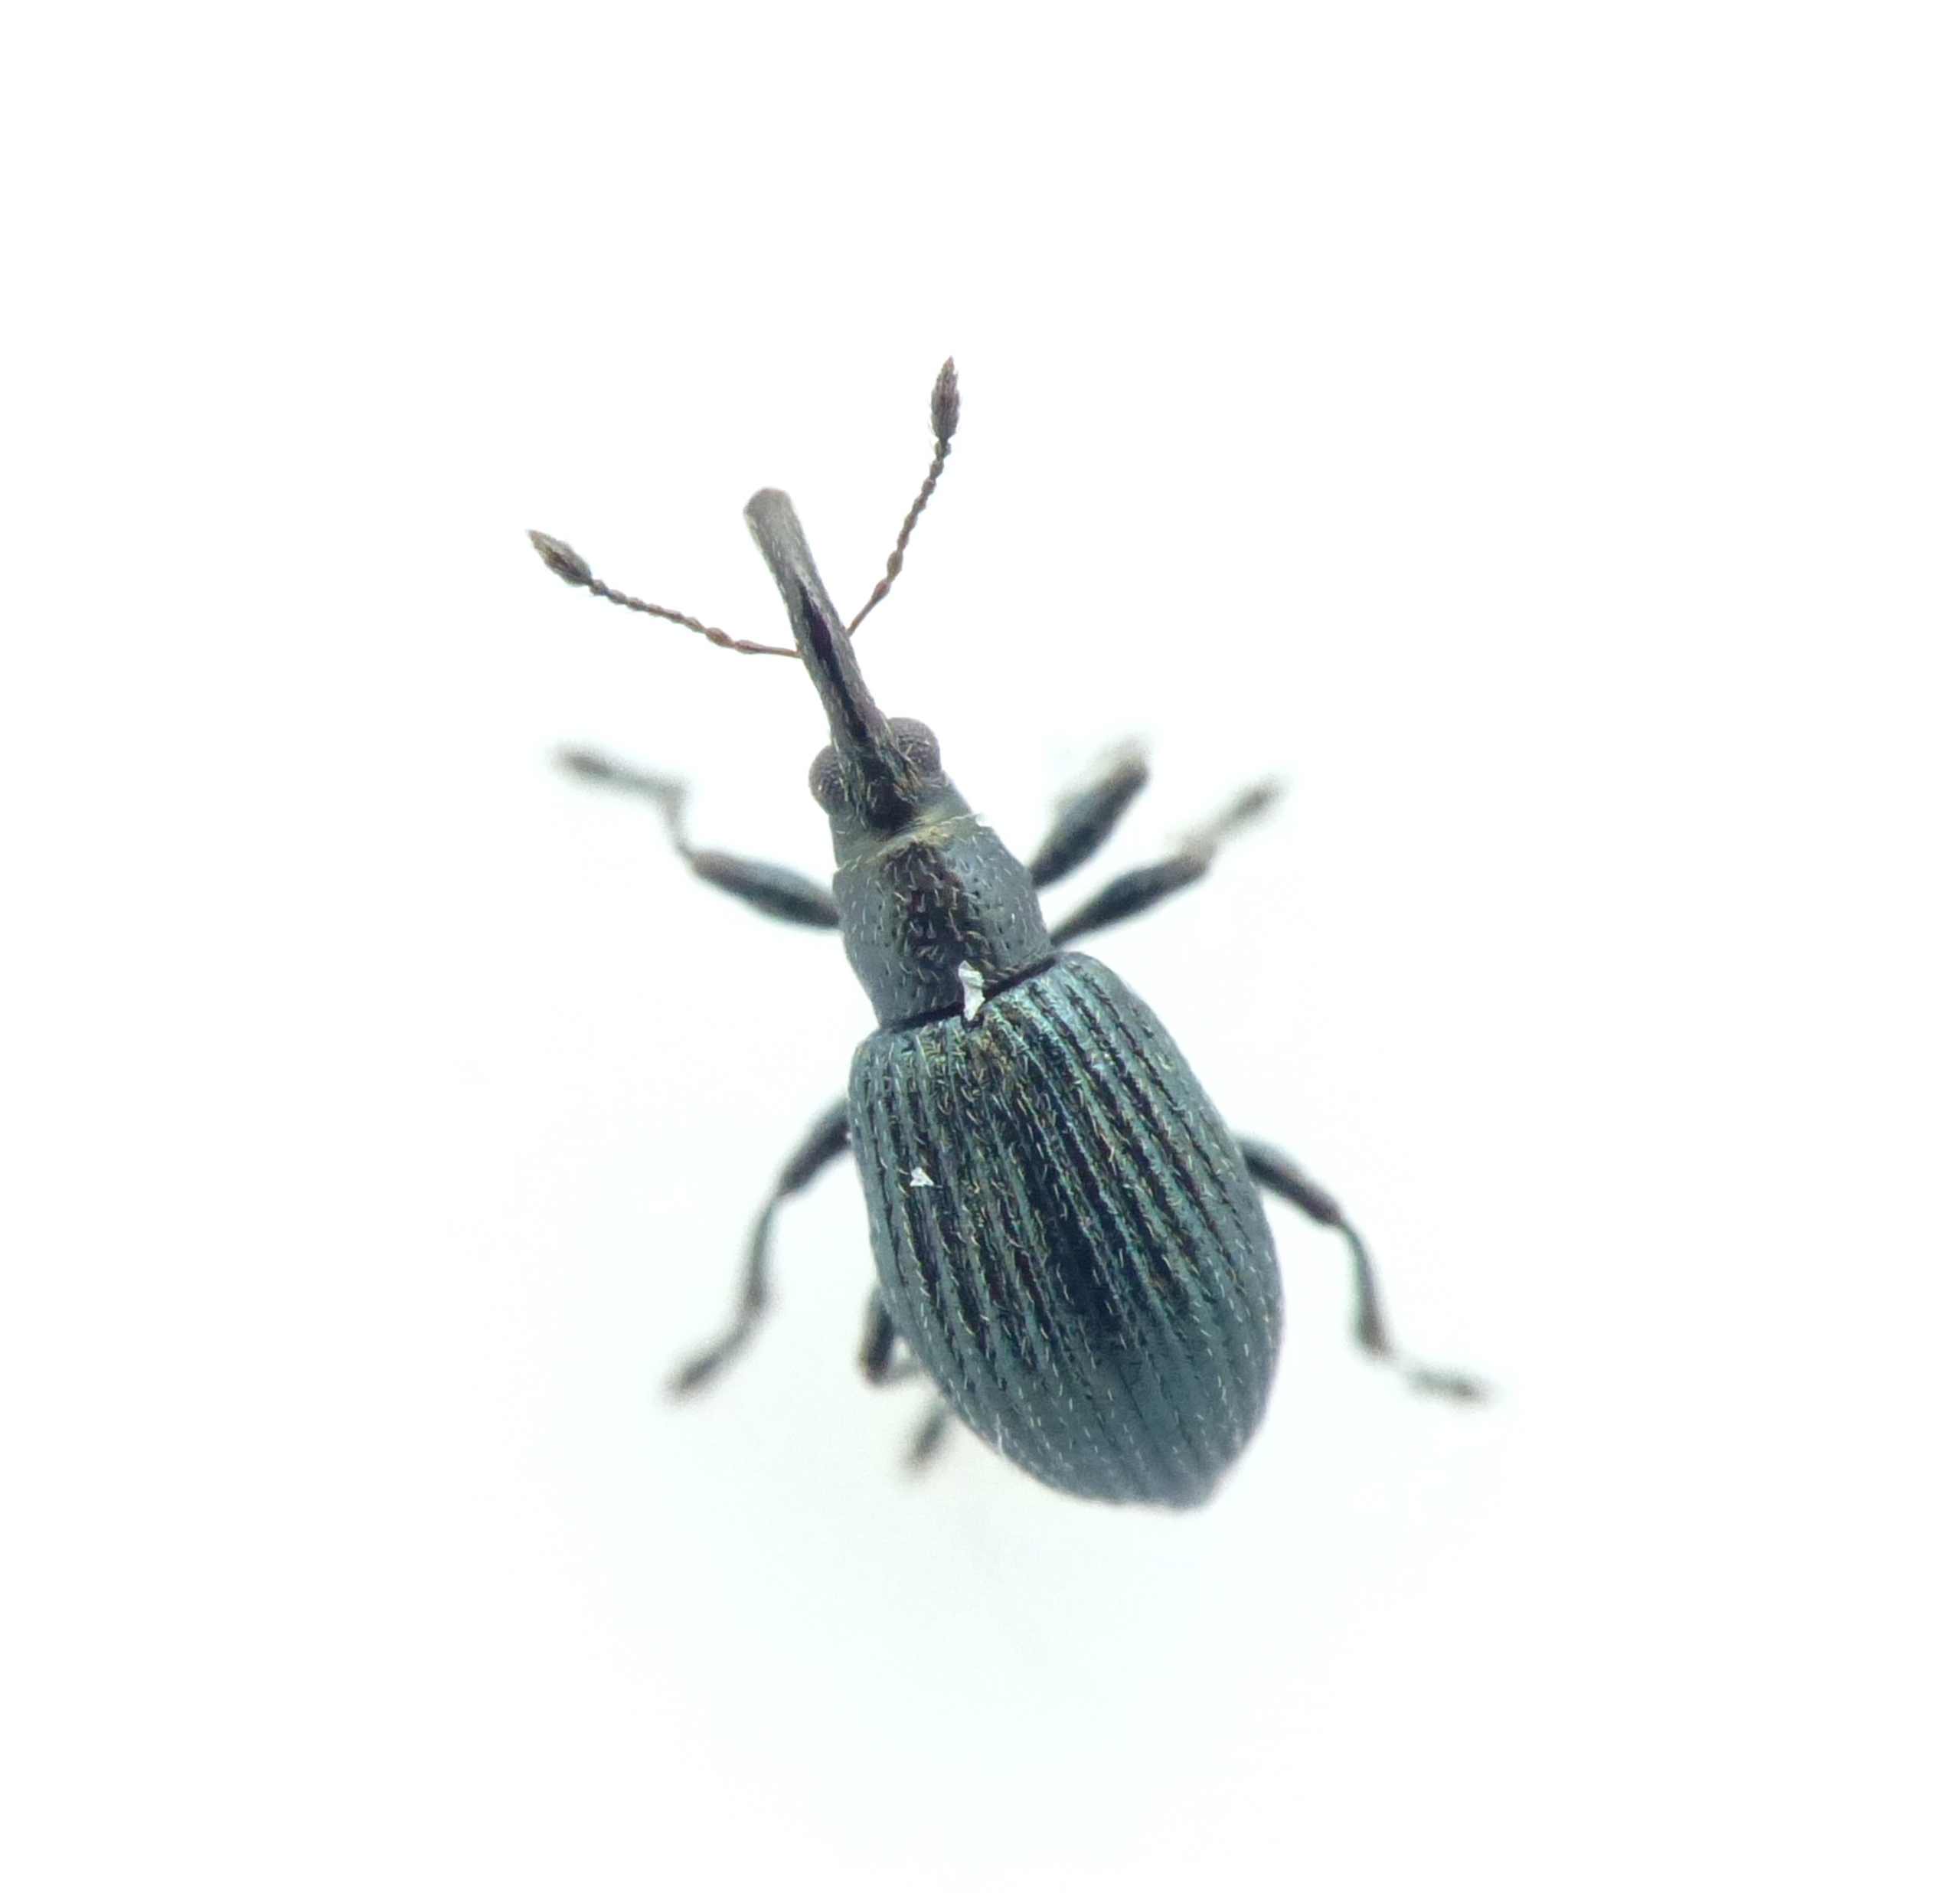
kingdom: Animalia
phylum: Arthropoda
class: Insecta
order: Coleoptera
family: Apionidae
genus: Ischnopterapion
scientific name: Ischnopterapion virens
